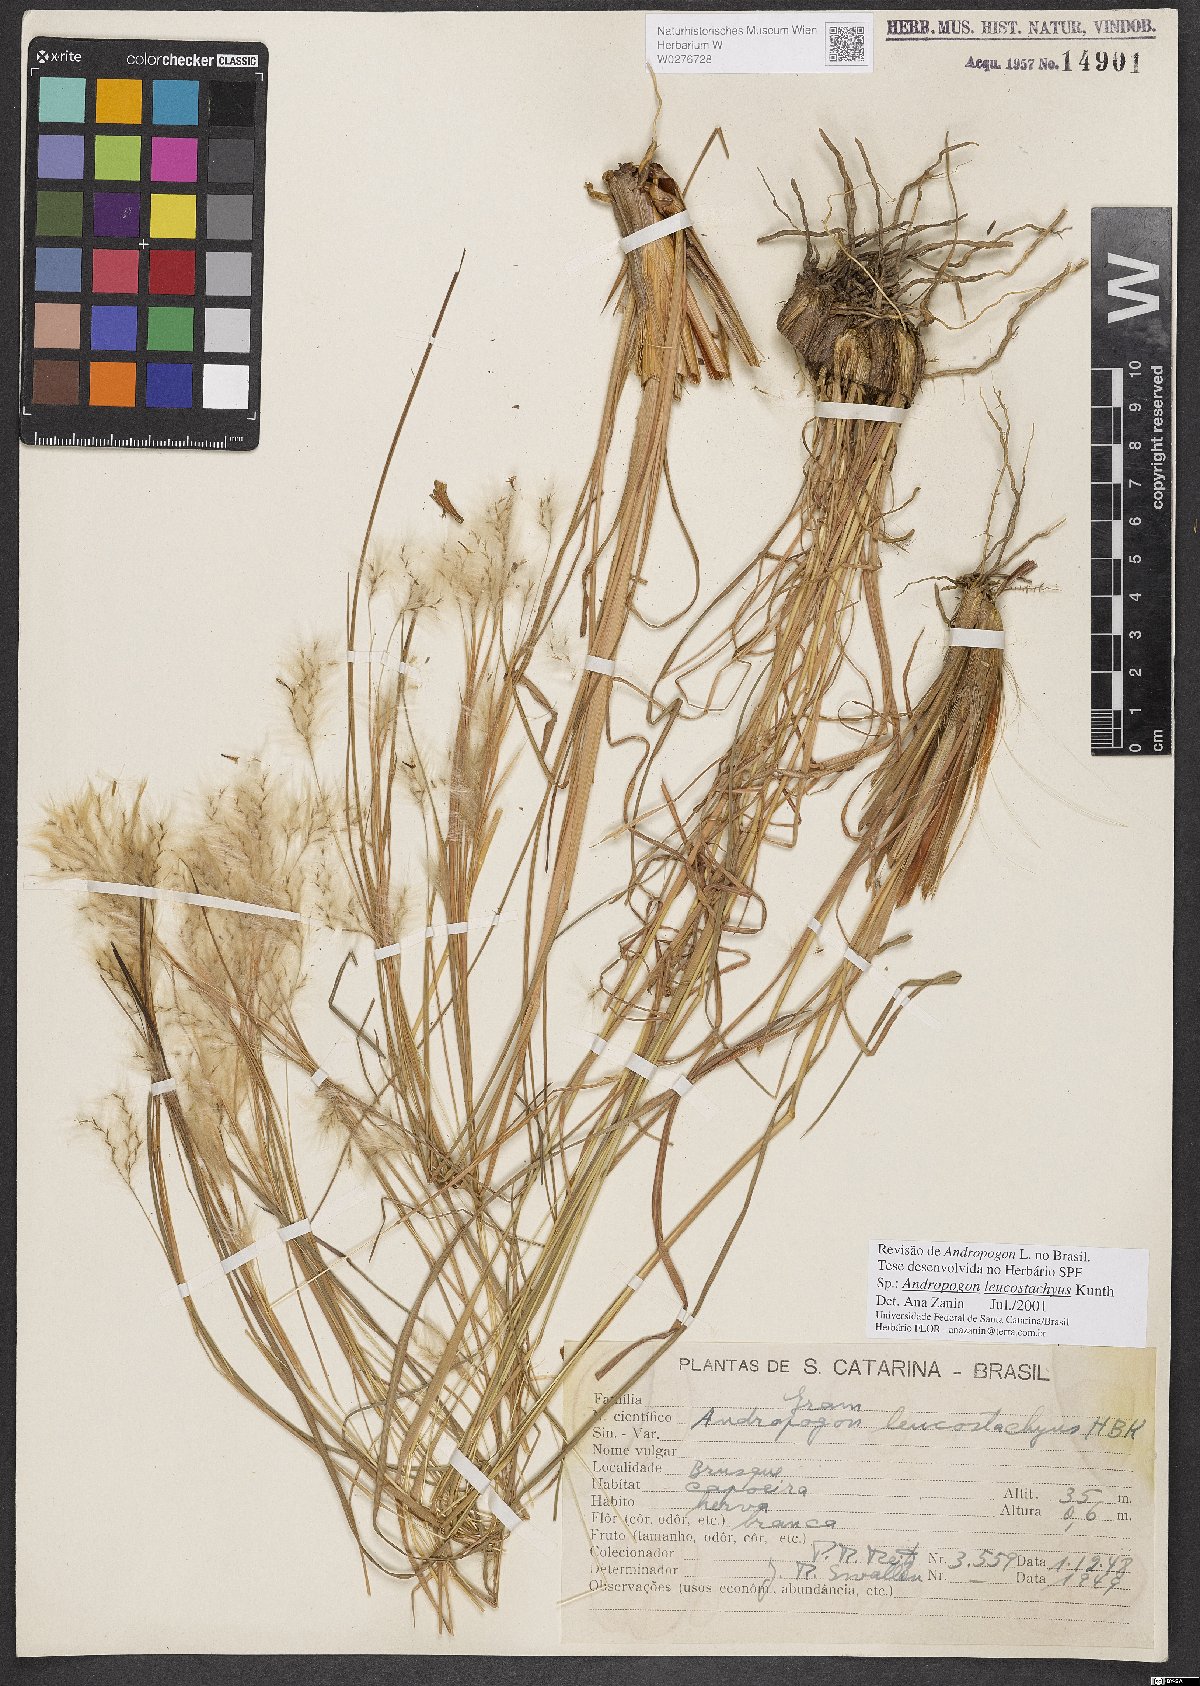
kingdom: Plantae
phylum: Tracheophyta
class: Liliopsida
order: Poales
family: Poaceae
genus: Andropogon
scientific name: Andropogon leucostachyus
